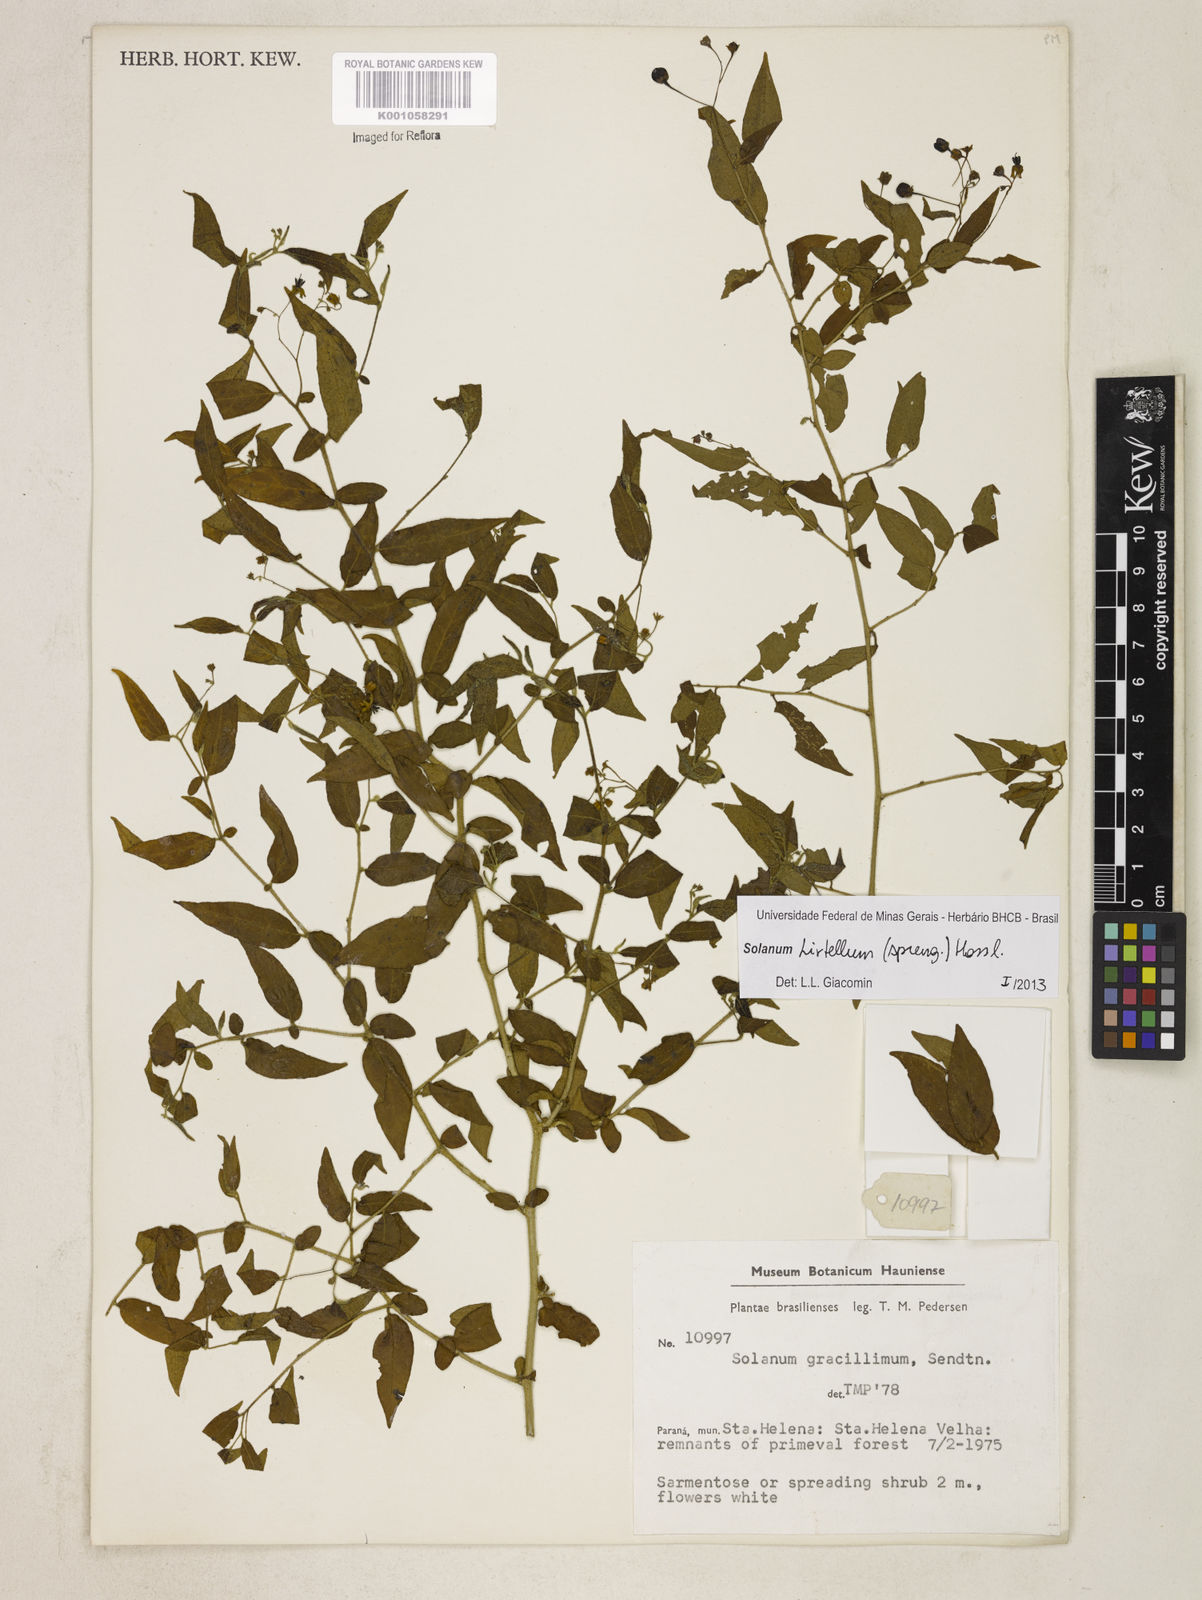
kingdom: Plantae
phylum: Tracheophyta
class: Magnoliopsida
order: Solanales
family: Solanaceae
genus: Solanum
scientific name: Solanum hirtellum
